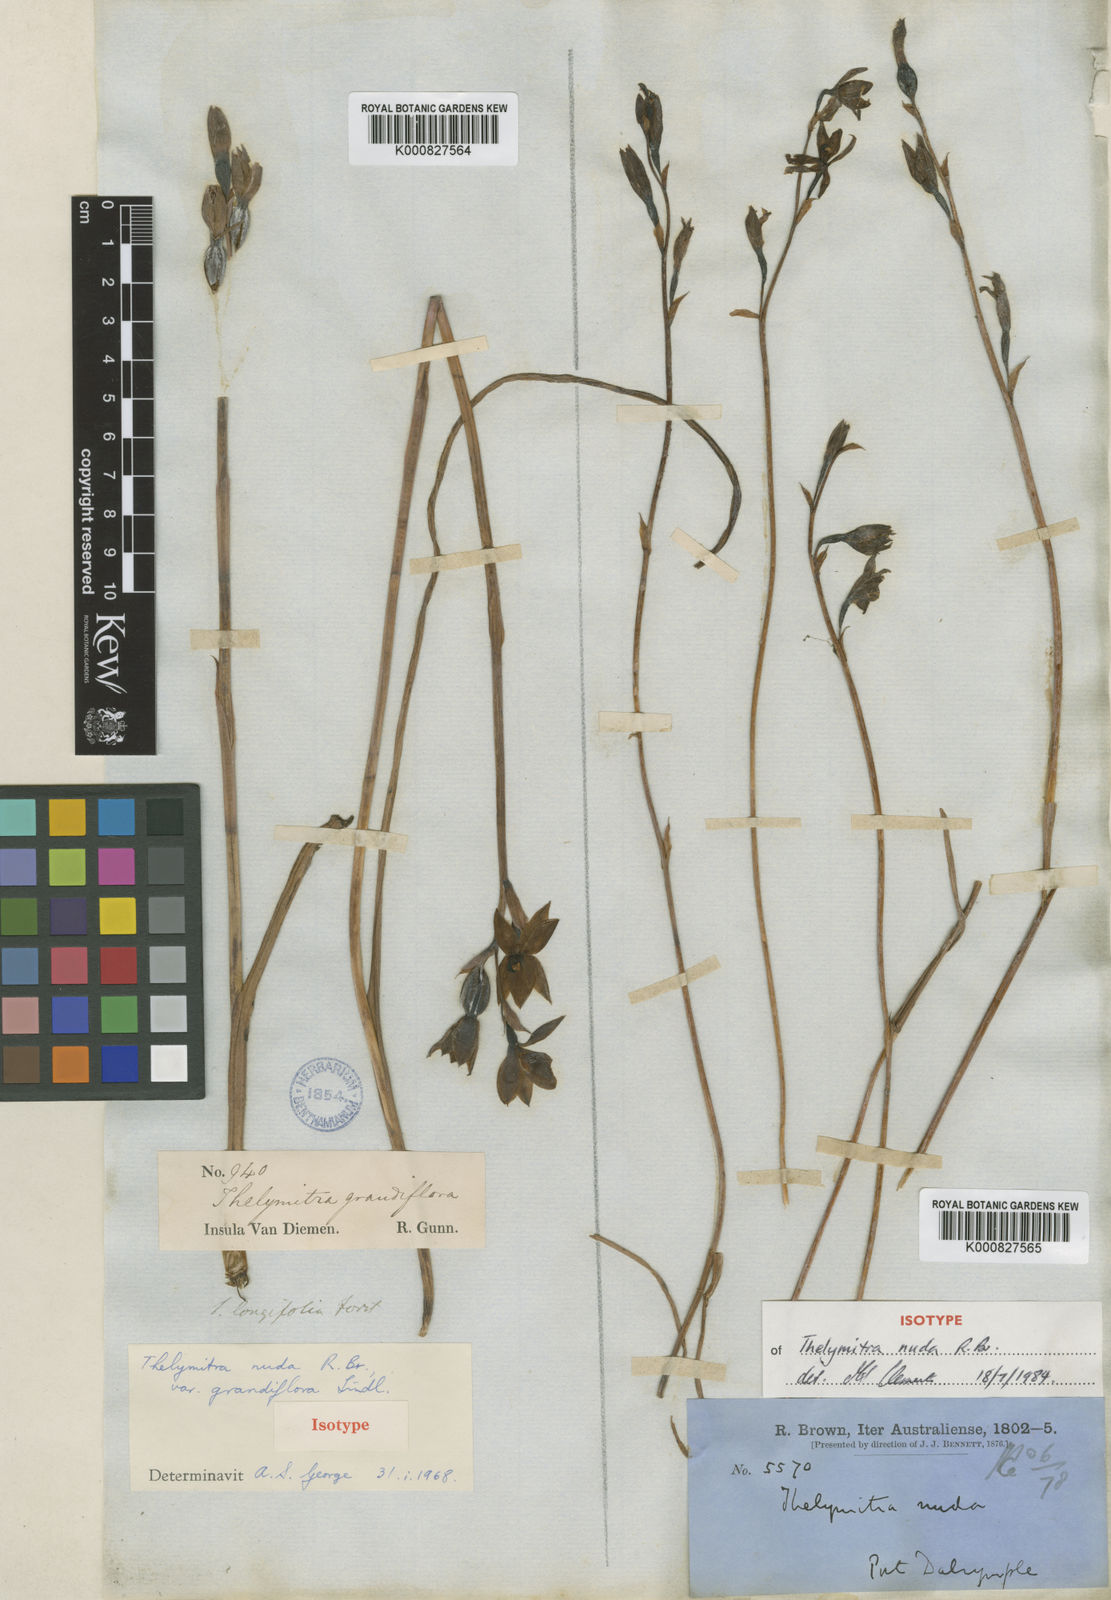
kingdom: Plantae
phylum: Tracheophyta
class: Liliopsida
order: Asparagales
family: Orchidaceae
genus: Thelymitra
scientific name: Thelymitra nuda
